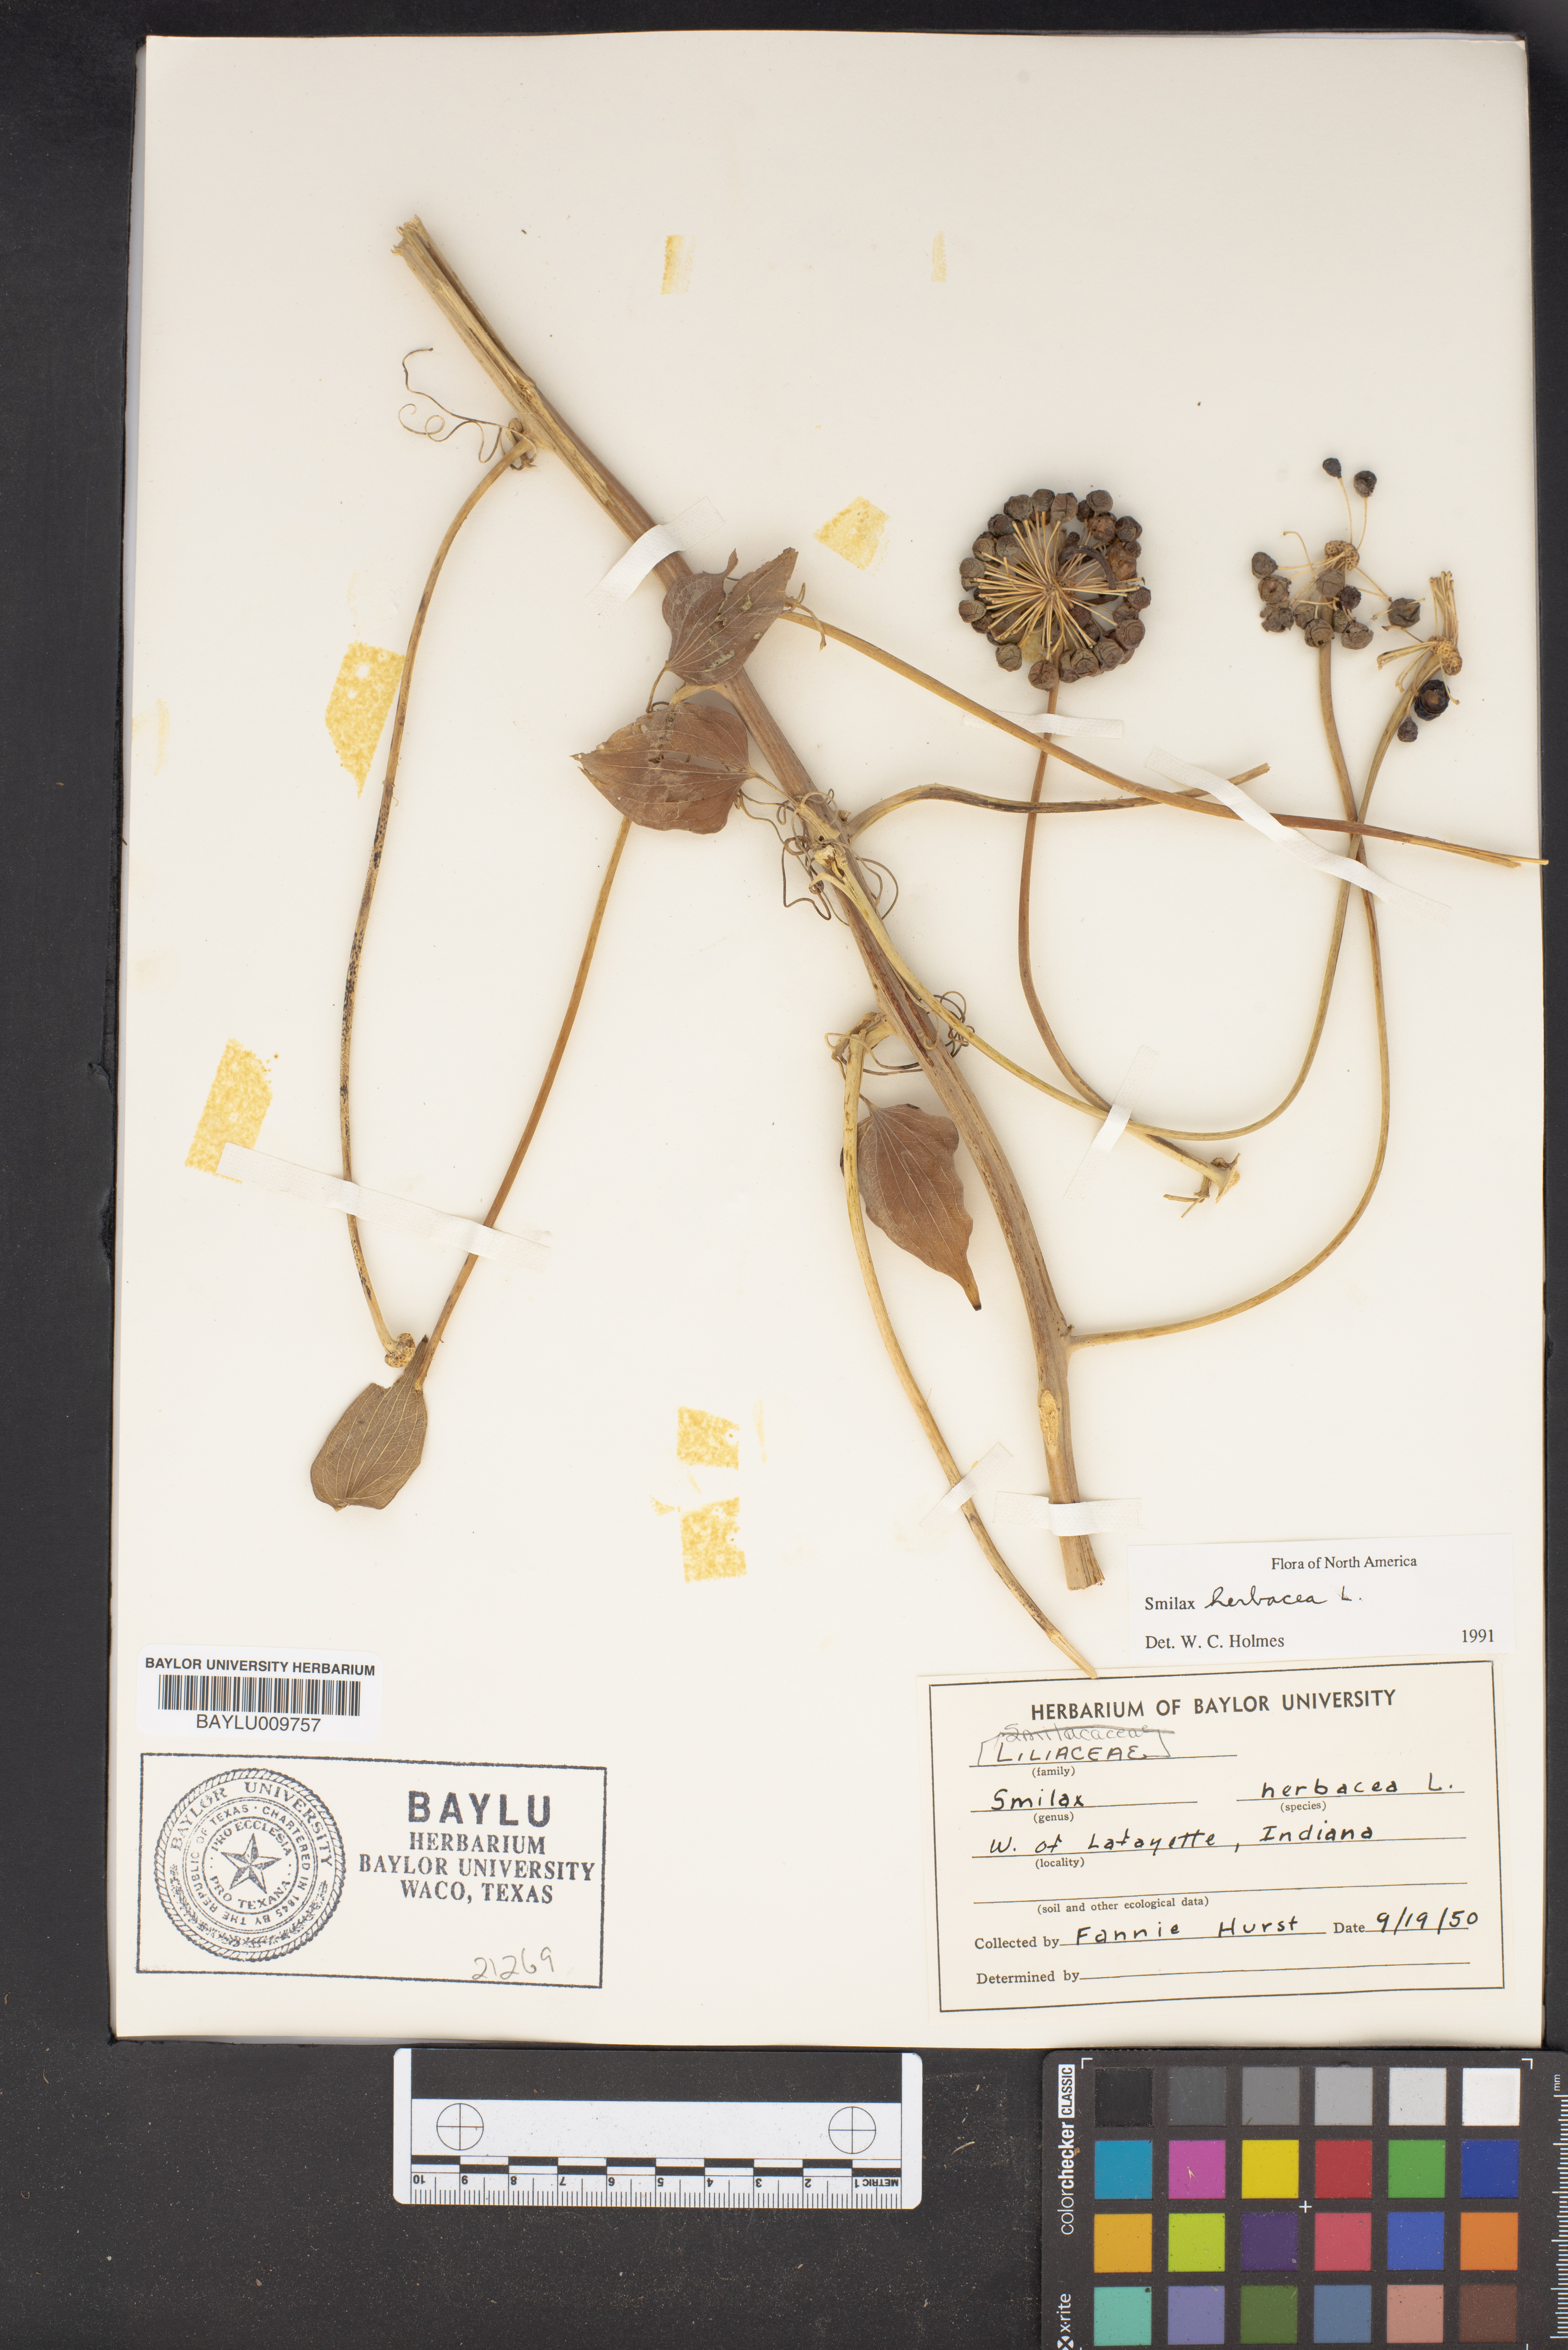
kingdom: Plantae
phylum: Tracheophyta
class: Liliopsida
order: Liliales
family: Smilacaceae
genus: Smilax
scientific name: Smilax herbacea
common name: Jacob's-ladder
